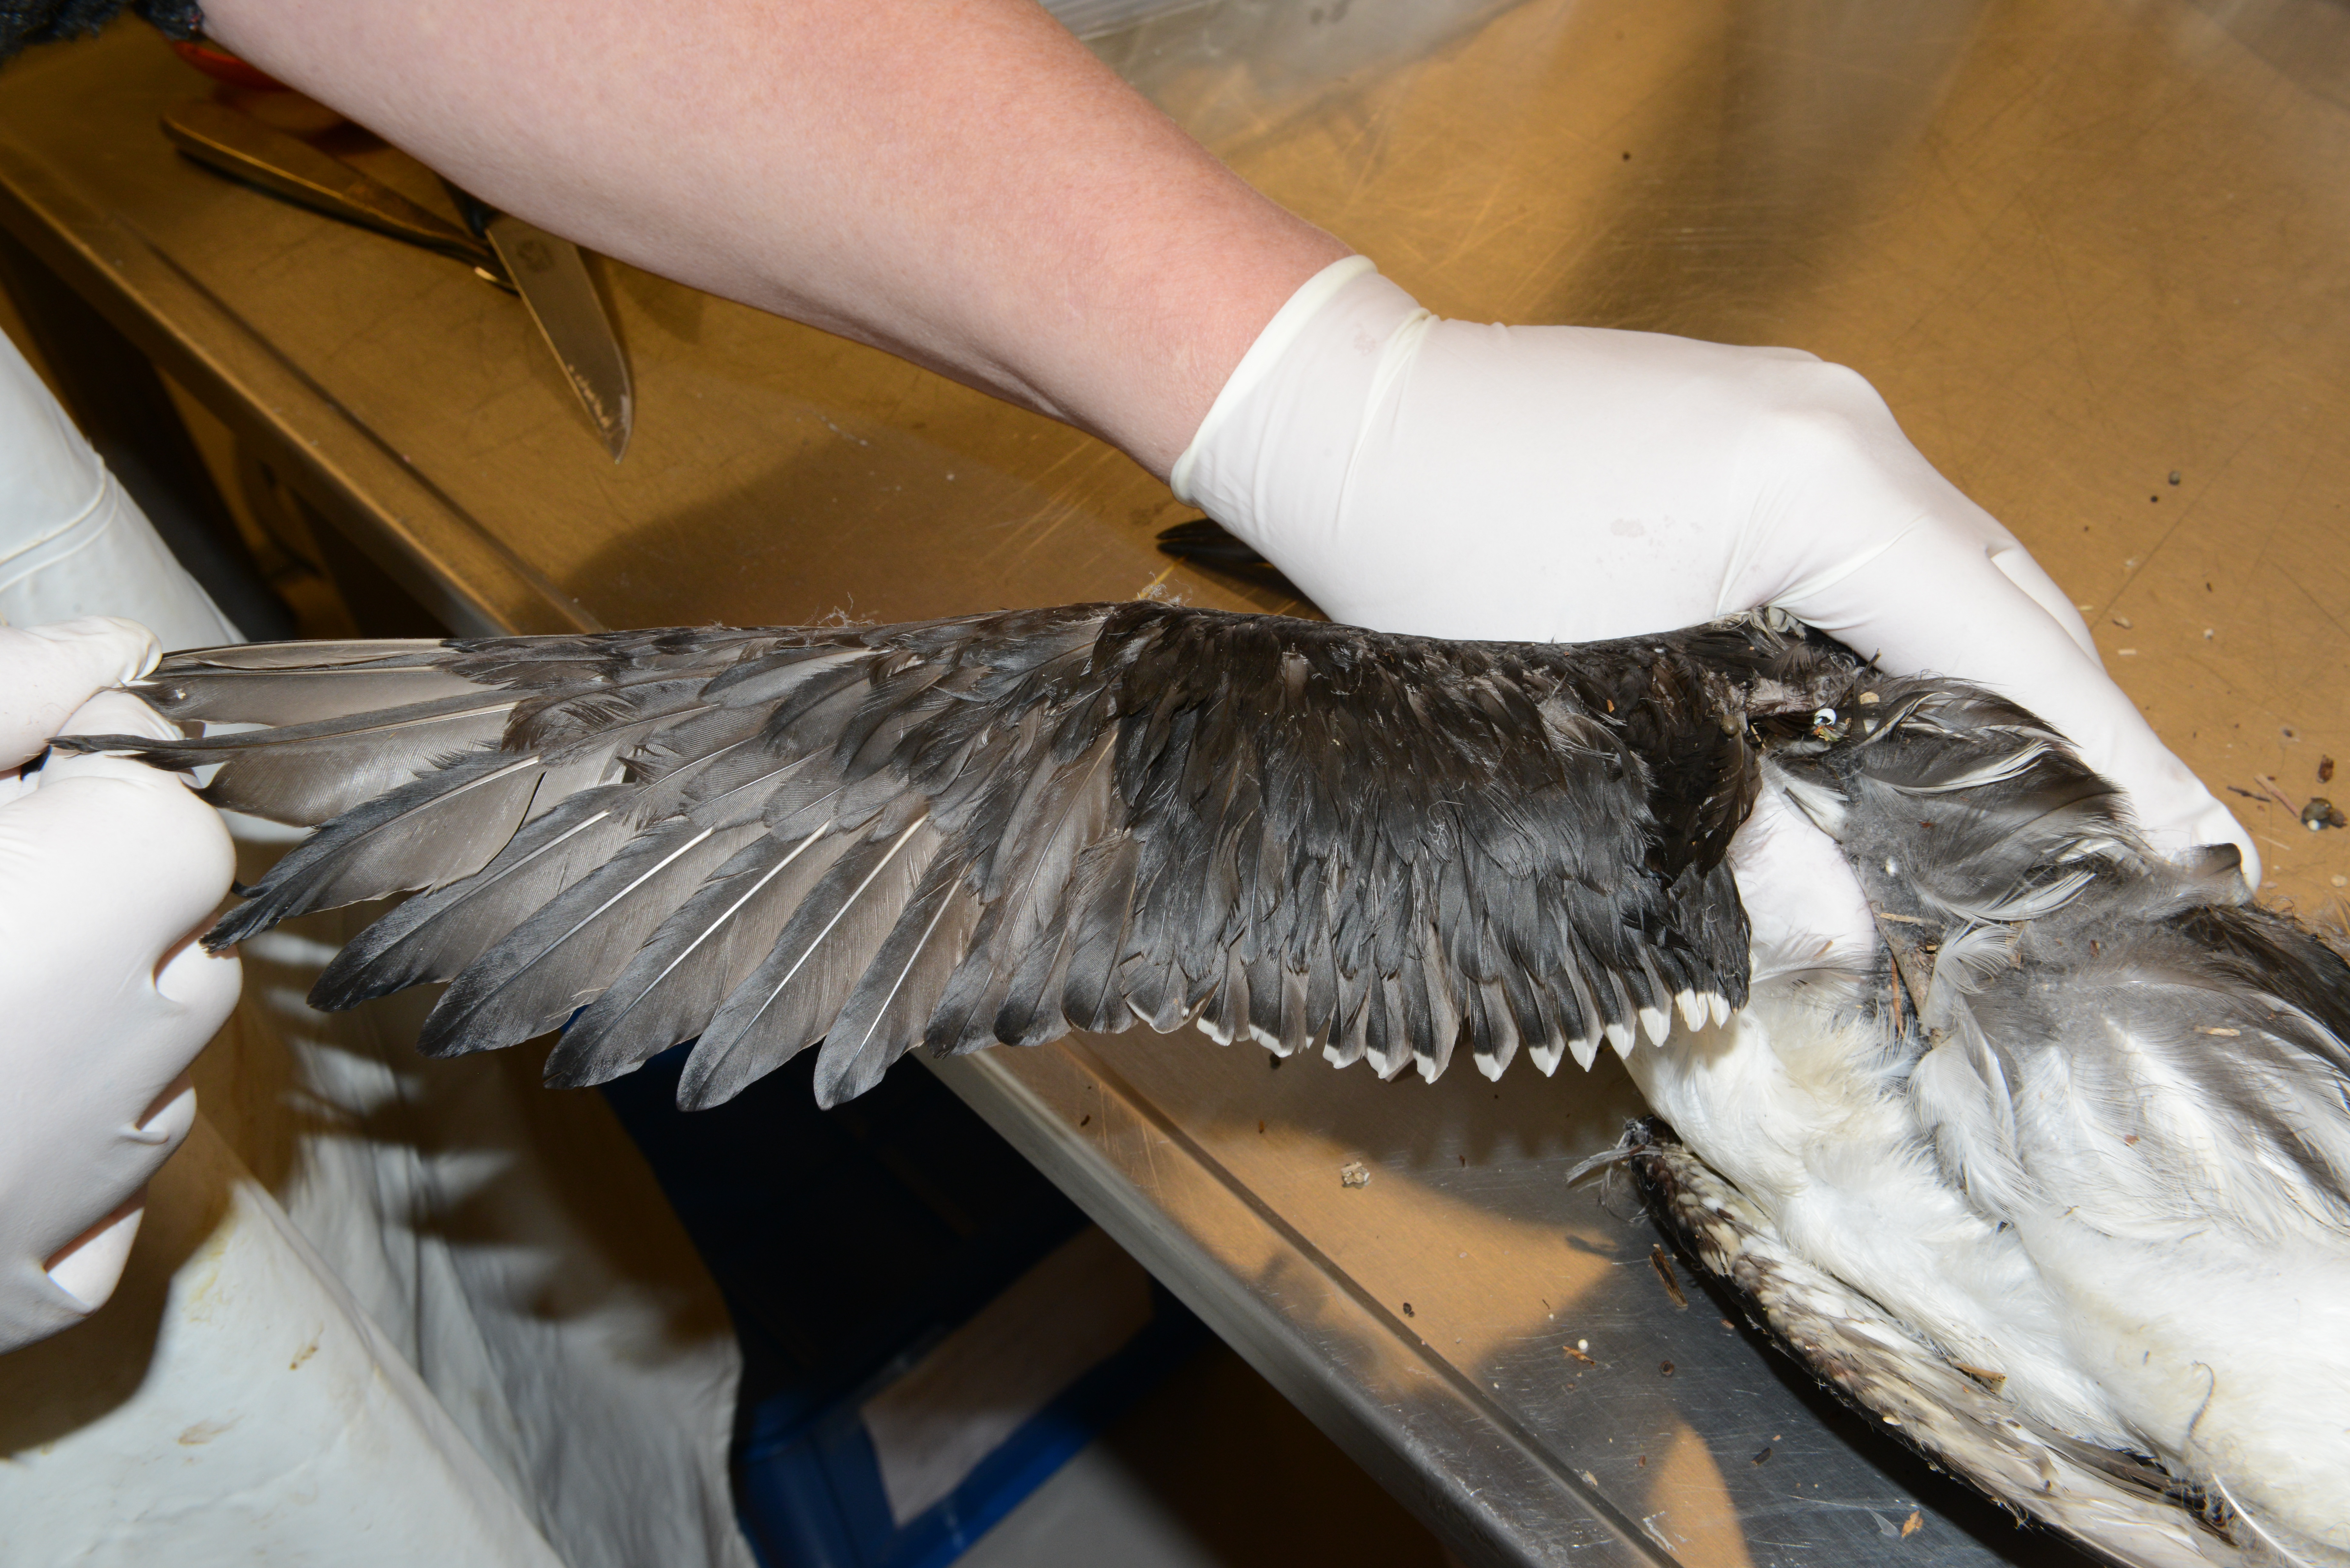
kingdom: Animalia
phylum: Chordata
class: Aves
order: Charadriiformes
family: Alcidae
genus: Uria
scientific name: Uria aalge
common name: Common murre
